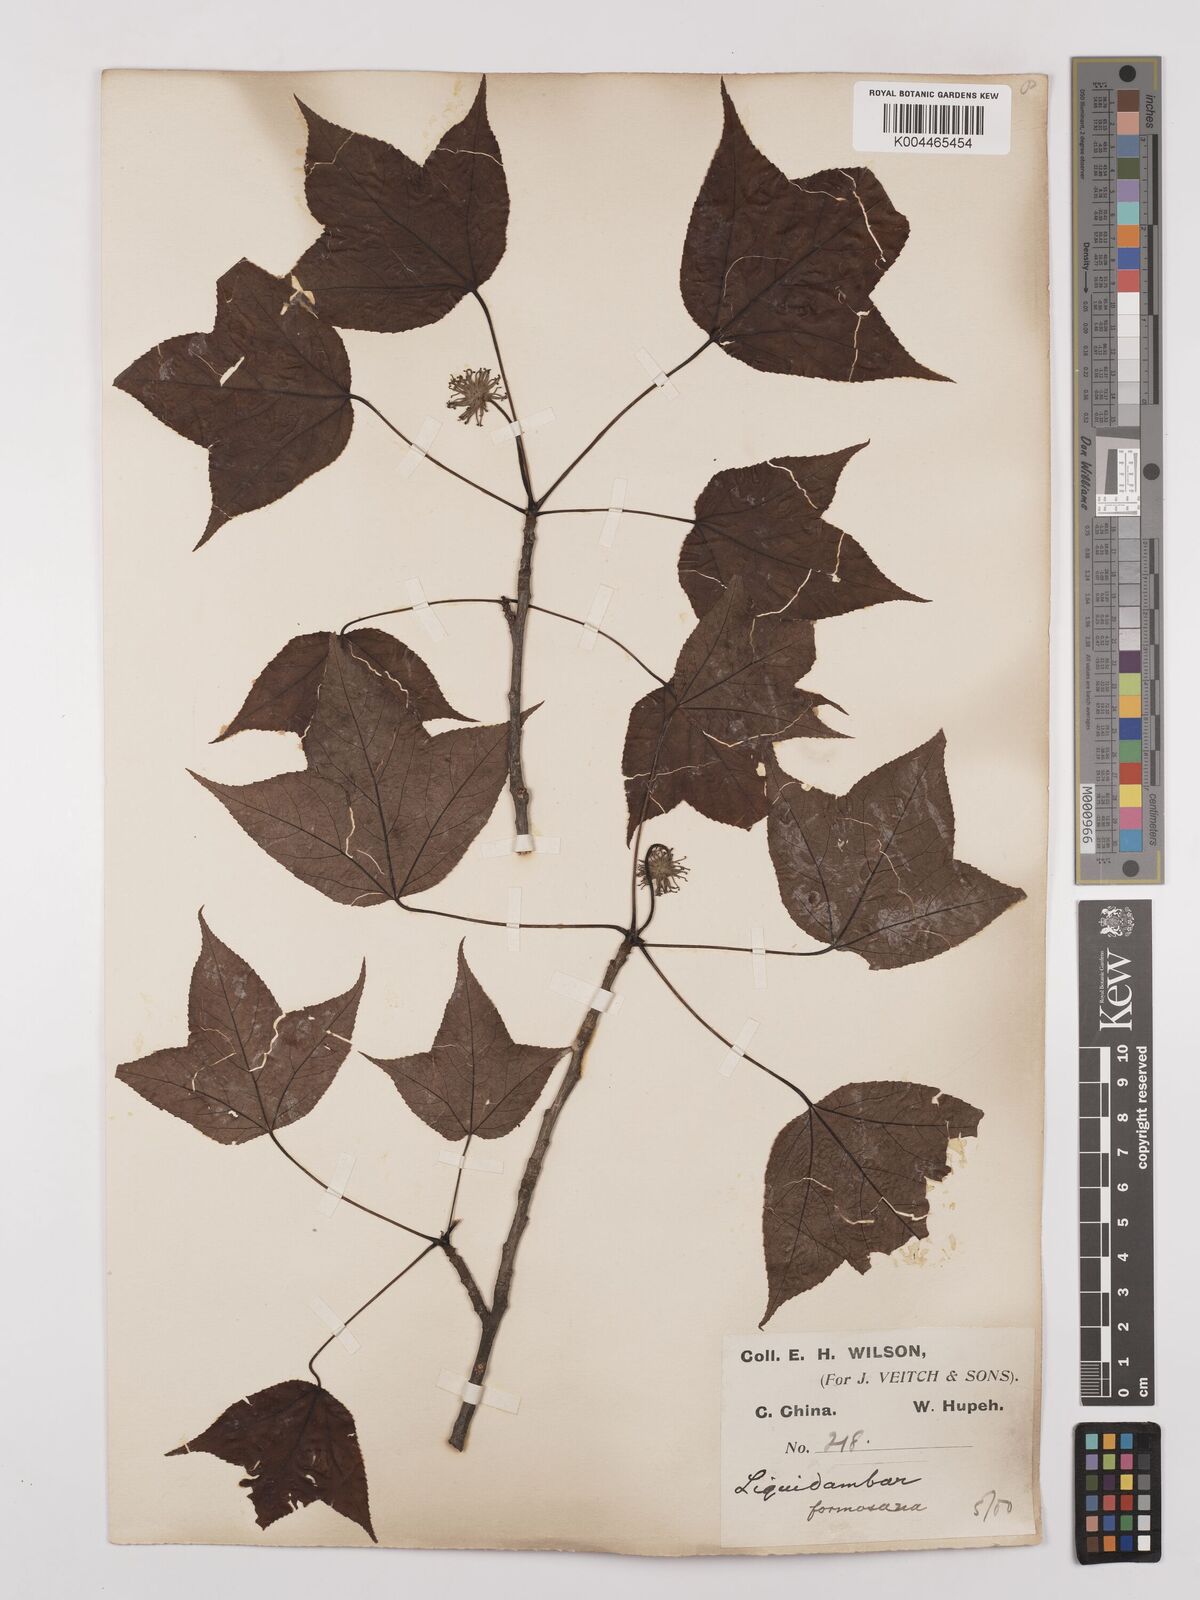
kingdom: Plantae
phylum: Tracheophyta
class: Magnoliopsida
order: Saxifragales
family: Altingiaceae
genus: Liquidambar
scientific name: Liquidambar formosana
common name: Chinese sweet gum
